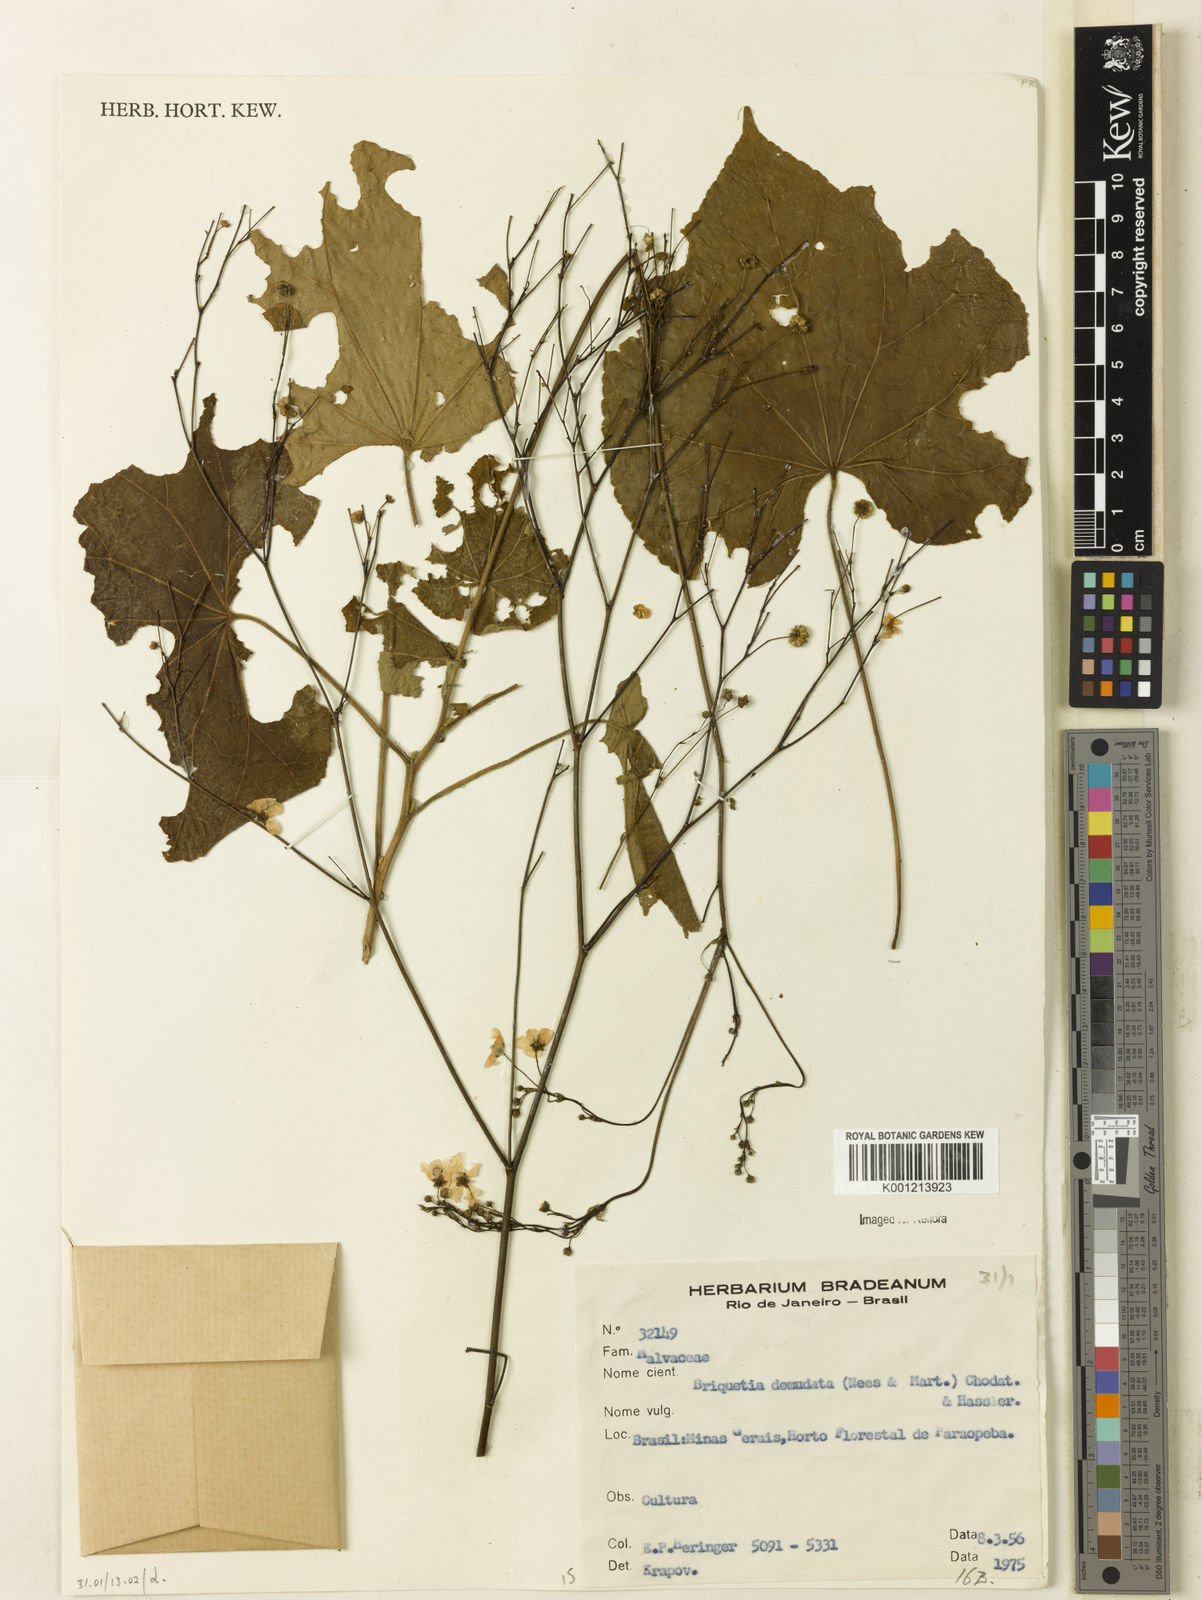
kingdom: Plantae
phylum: Tracheophyta
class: Magnoliopsida
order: Malvales
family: Malvaceae
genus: Allobriquetia
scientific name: Allobriquetia spicata
